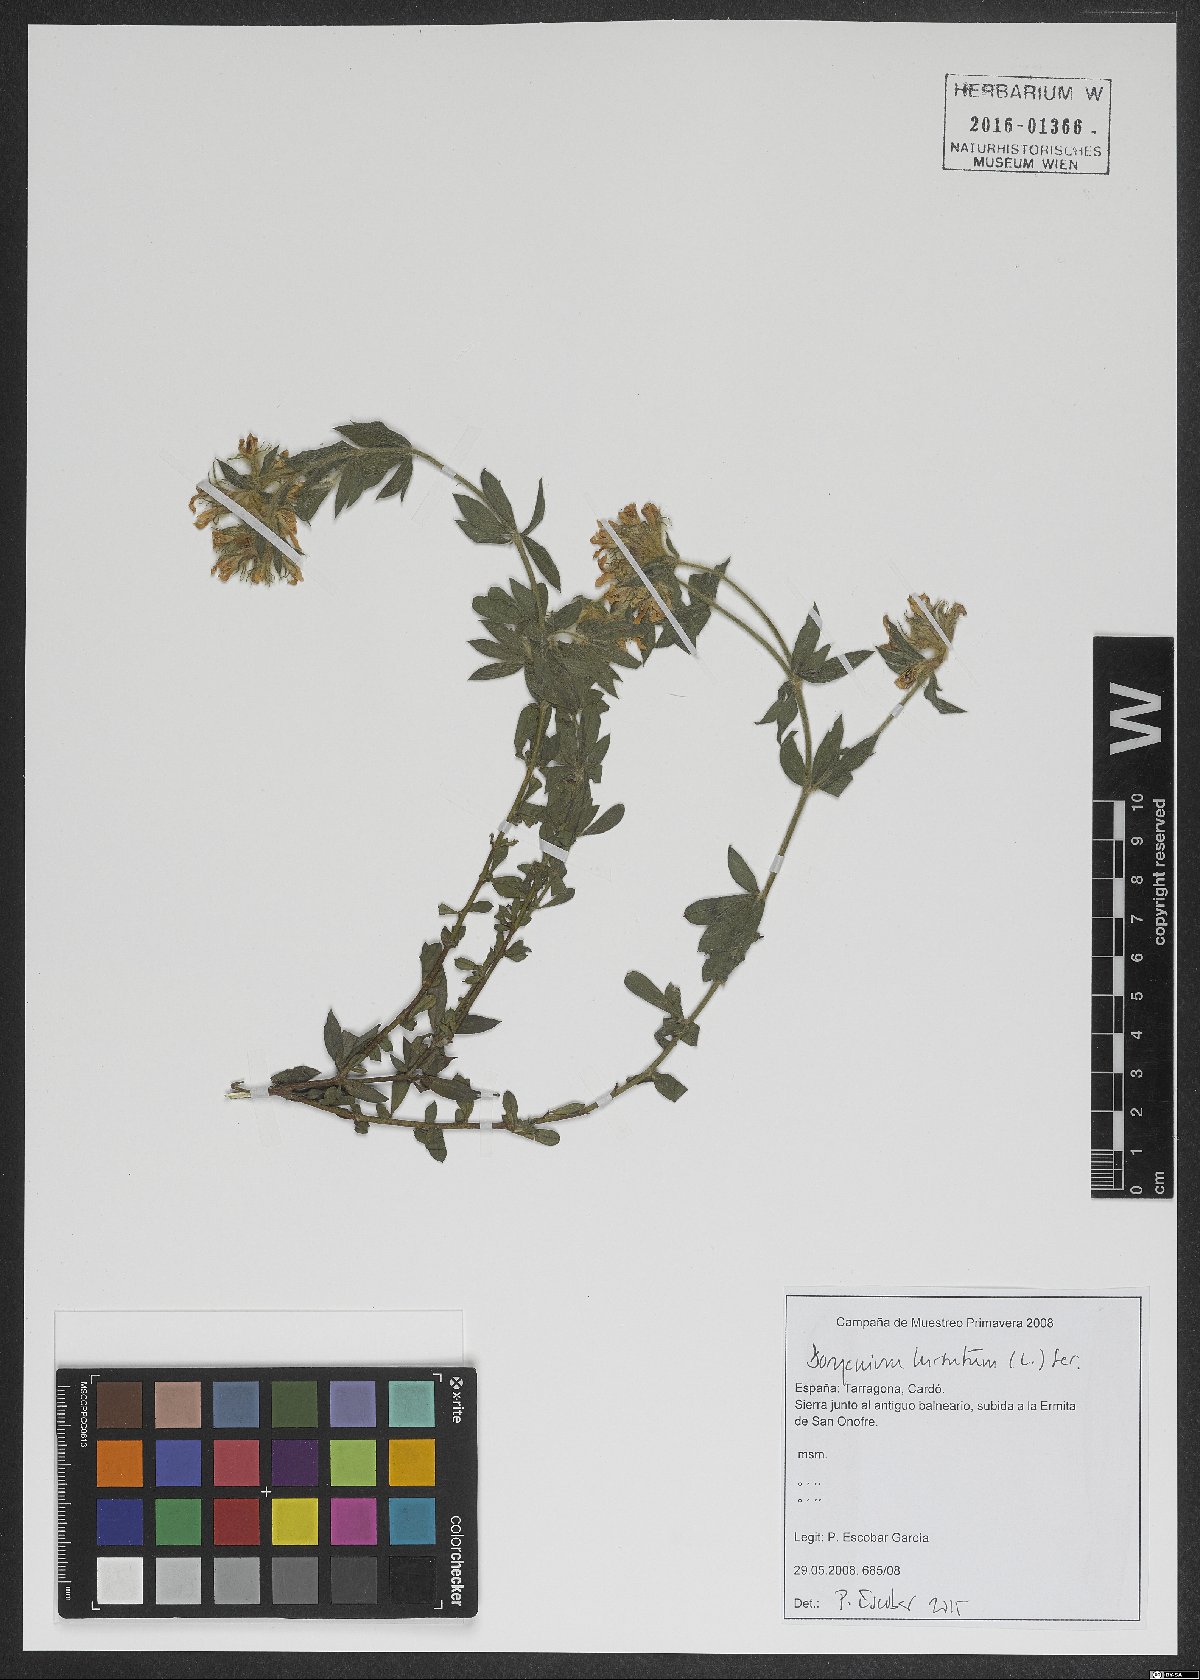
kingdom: Plantae
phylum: Tracheophyta
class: Magnoliopsida
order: Fabales
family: Fabaceae
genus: Lotus
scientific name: Lotus hirsutus
